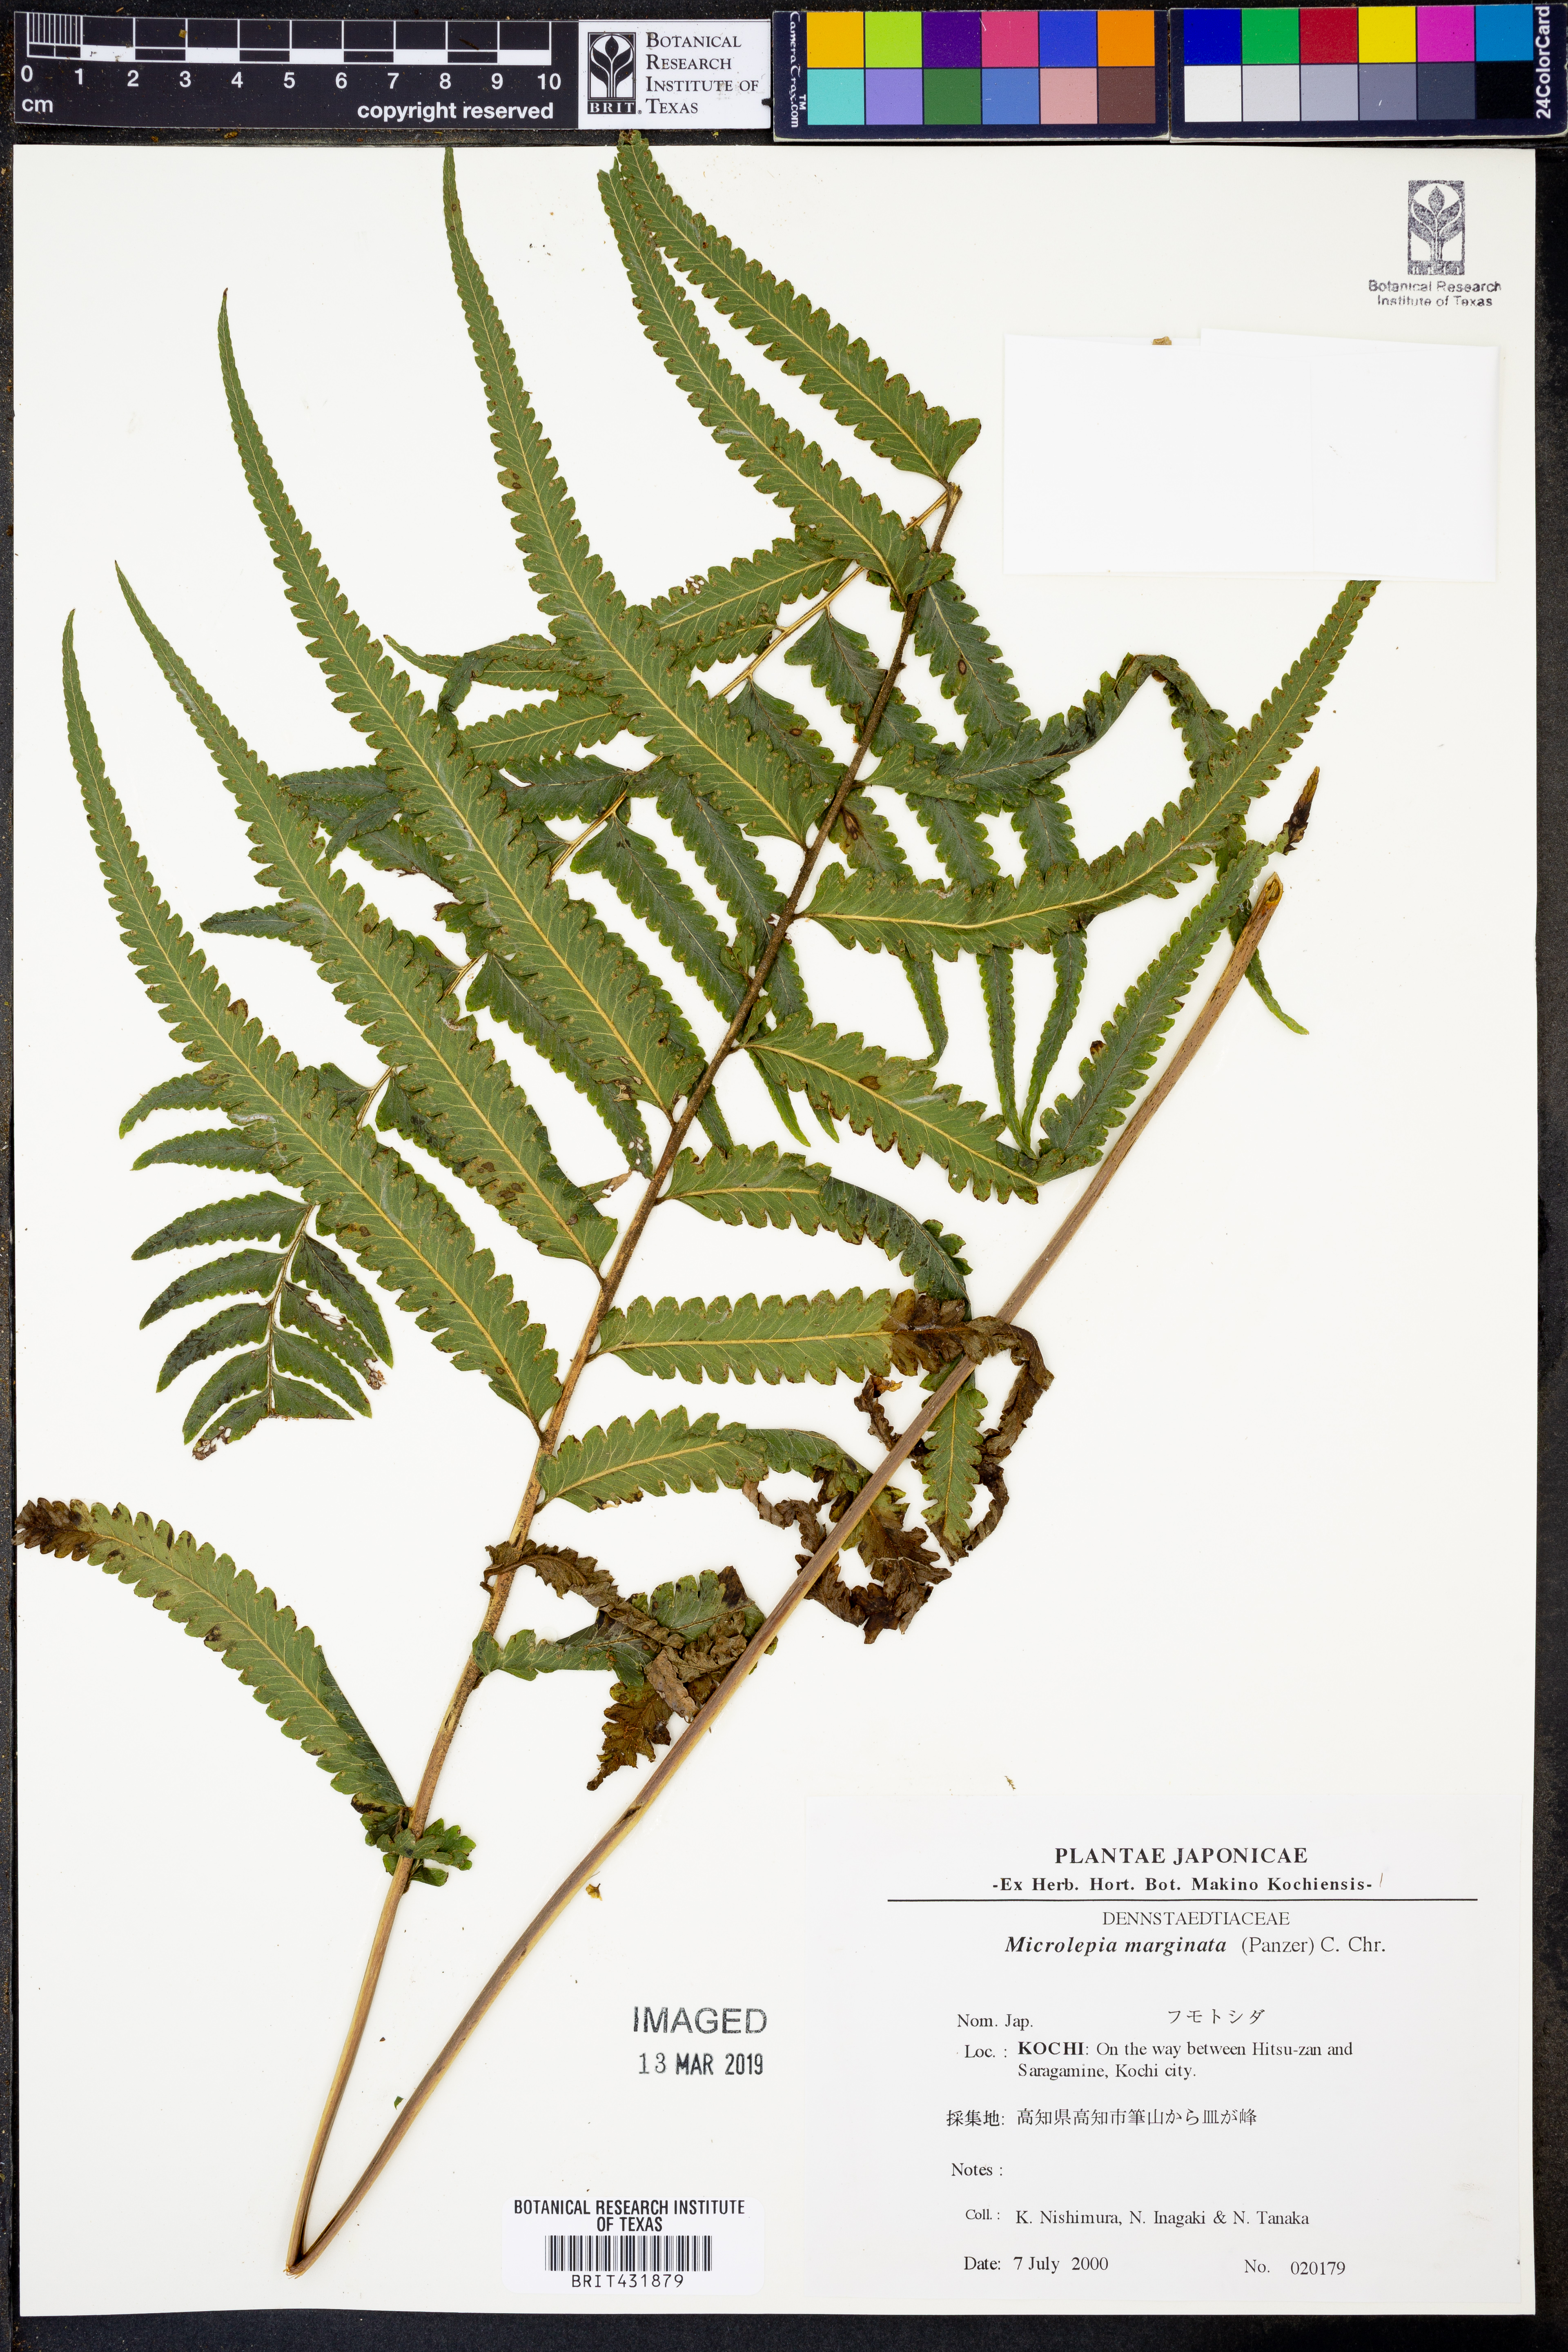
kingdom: Plantae
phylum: Tracheophyta
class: Polypodiopsida
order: Polypodiales
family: Dennstaedtiaceae
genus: Microlepia
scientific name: Microlepia marginata
